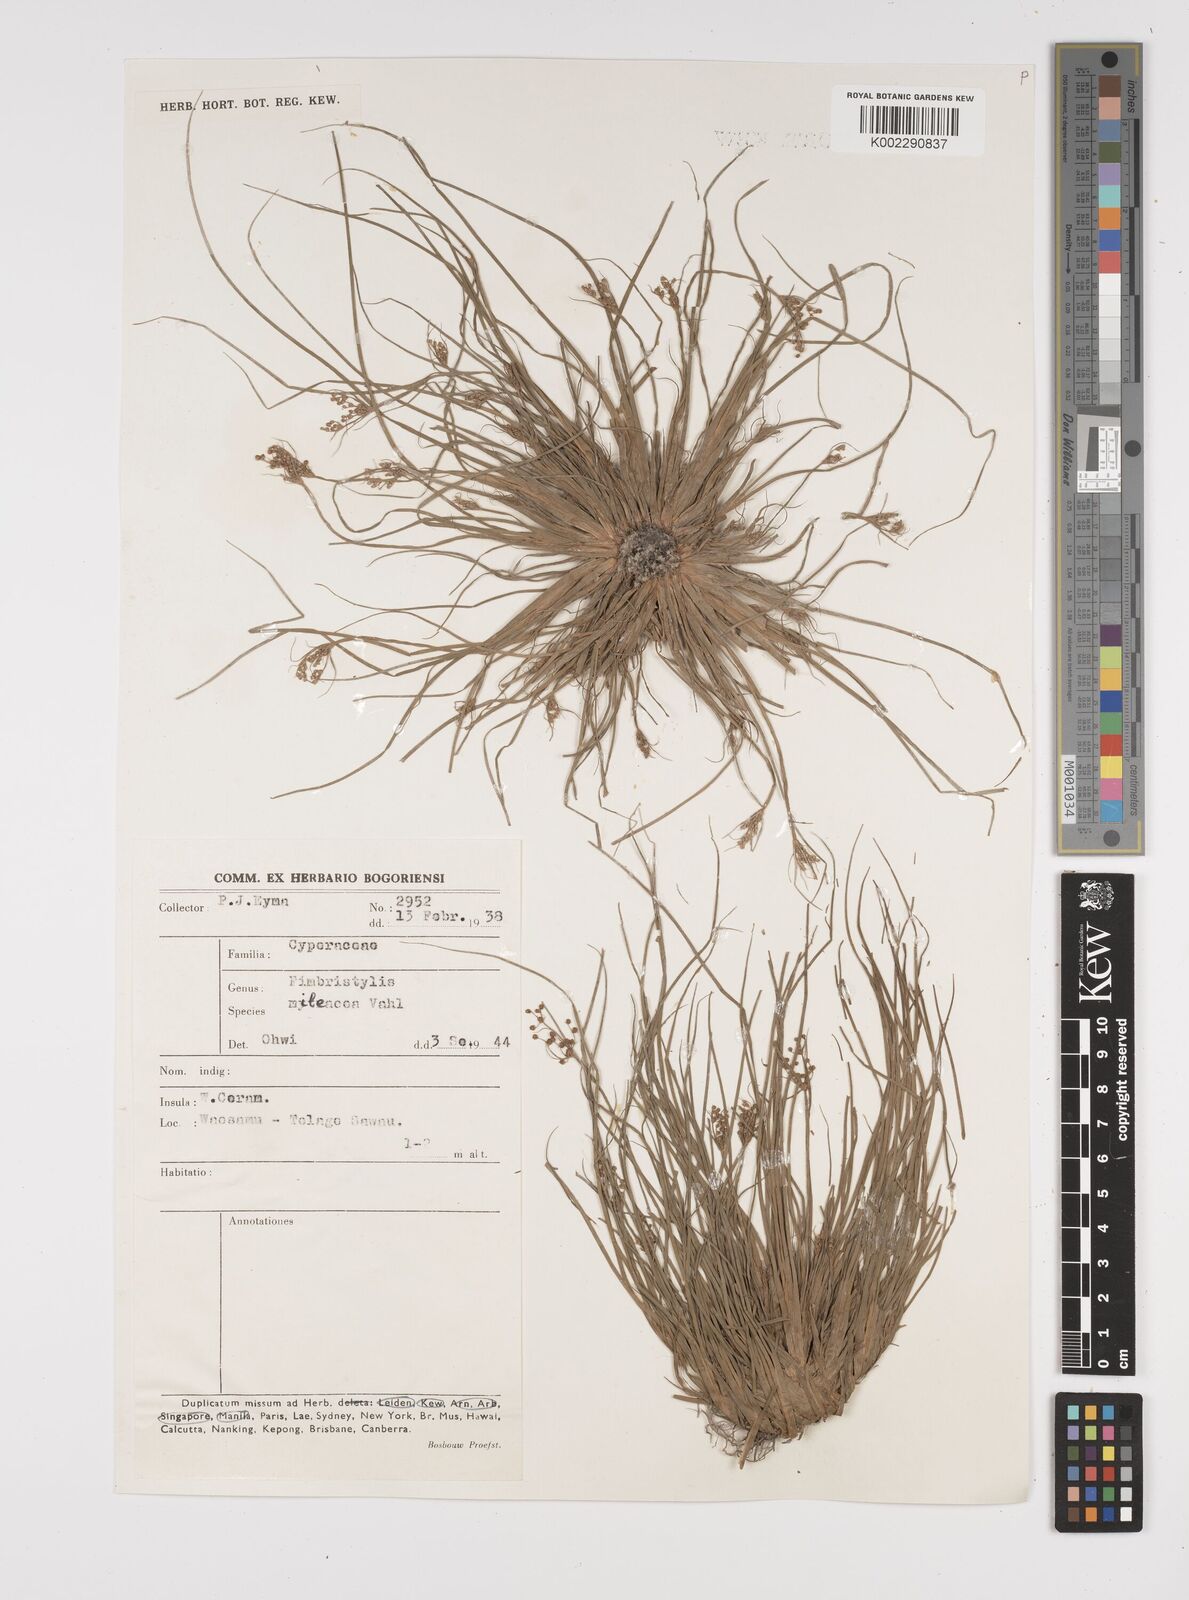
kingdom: Plantae
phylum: Tracheophyta
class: Liliopsida
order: Poales
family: Cyperaceae
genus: Fimbristylis
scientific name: Fimbristylis littoralis
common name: Fimbry
